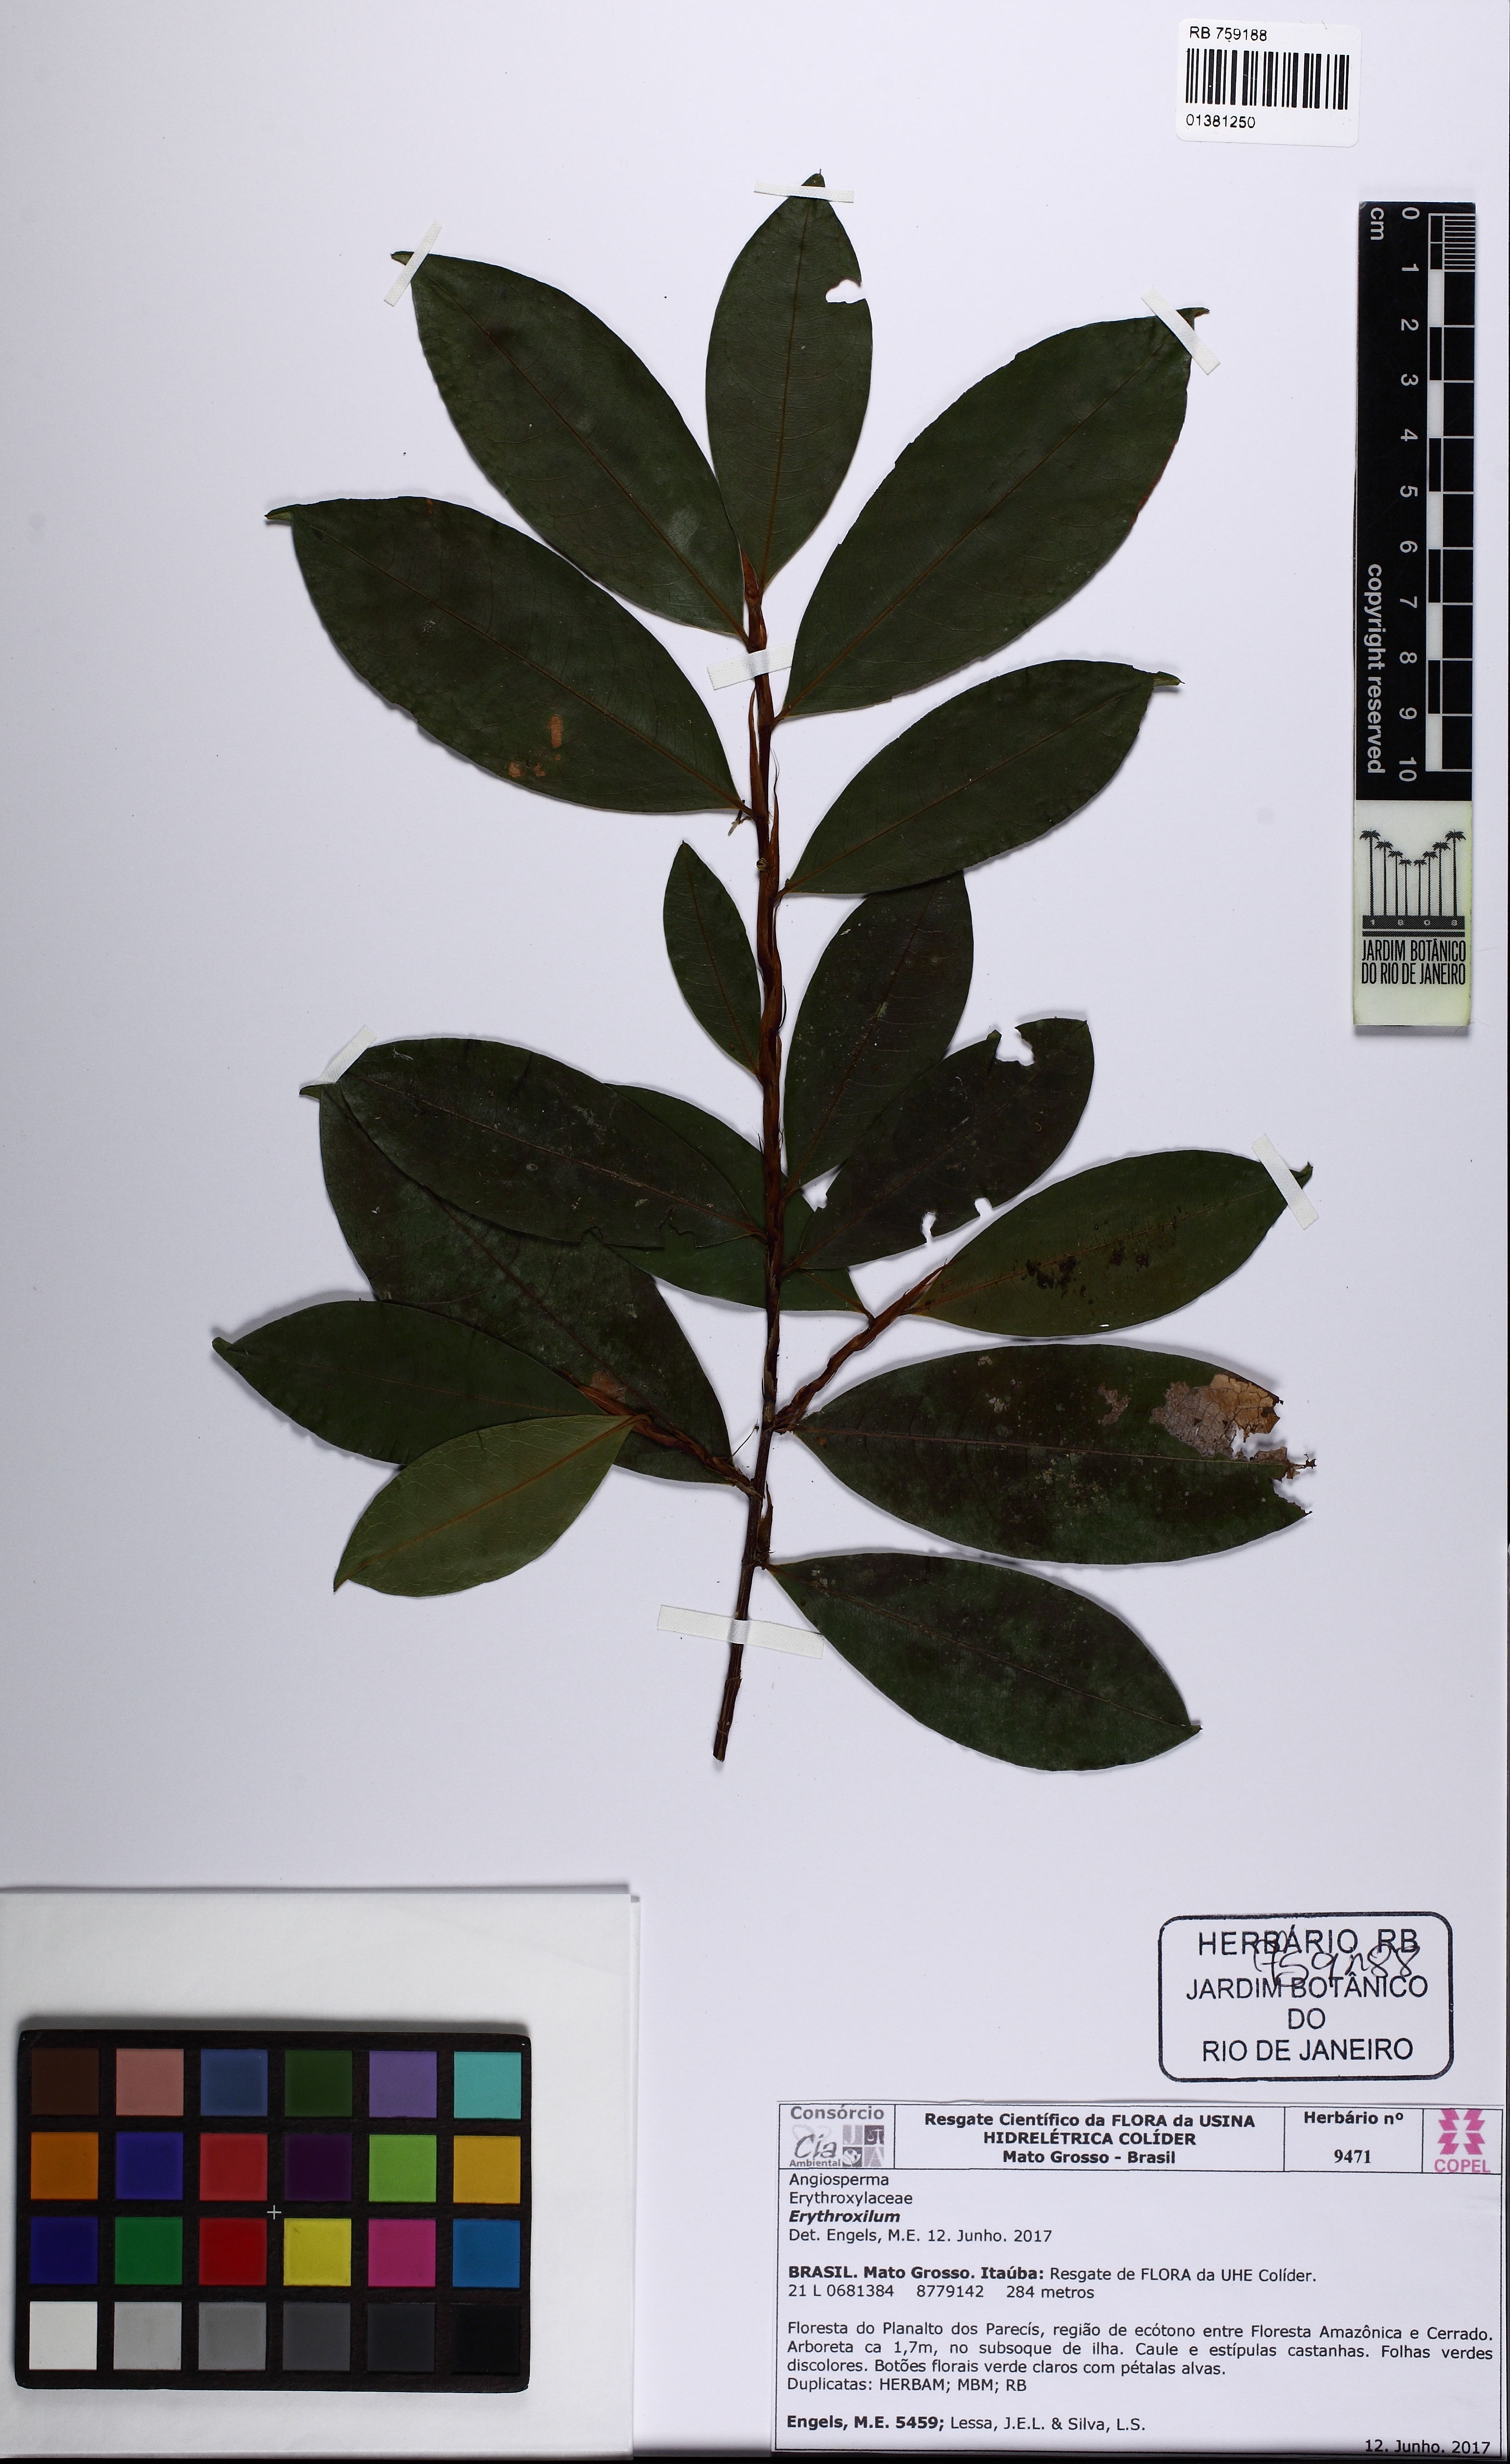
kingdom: Plantae
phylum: Tracheophyta
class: Magnoliopsida
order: Malpighiales
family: Erythroxylaceae
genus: Erythroxylum
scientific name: Erythroxylum
